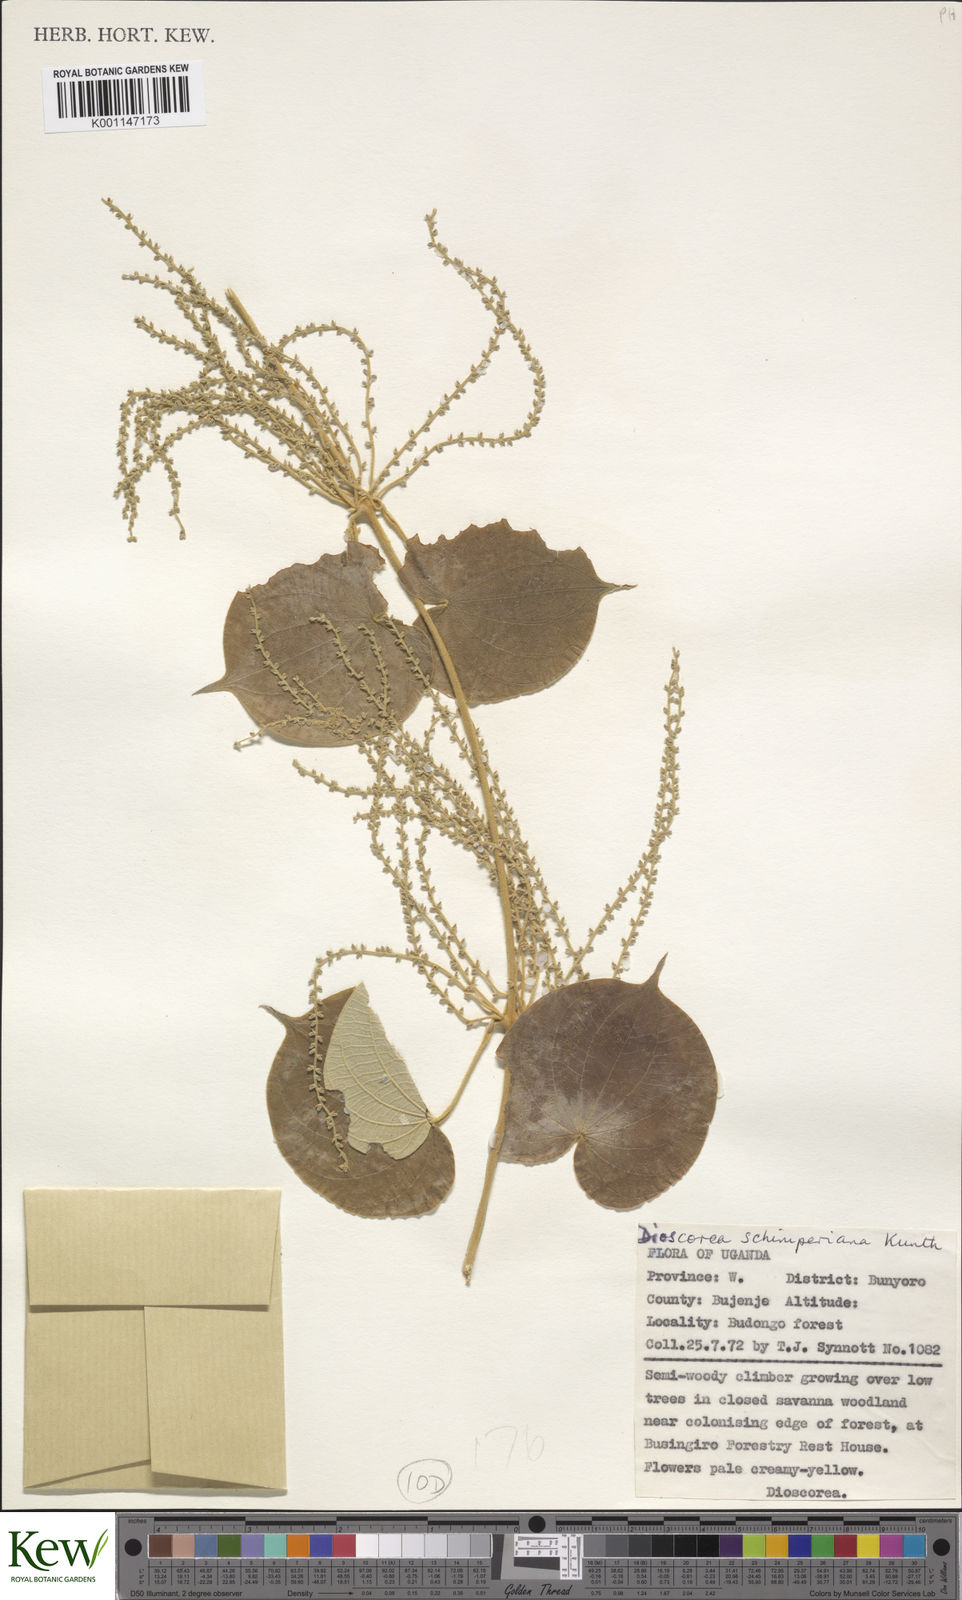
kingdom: Plantae
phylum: Tracheophyta
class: Liliopsida
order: Dioscoreales
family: Dioscoreaceae
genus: Dioscorea
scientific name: Dioscorea schimperiana
